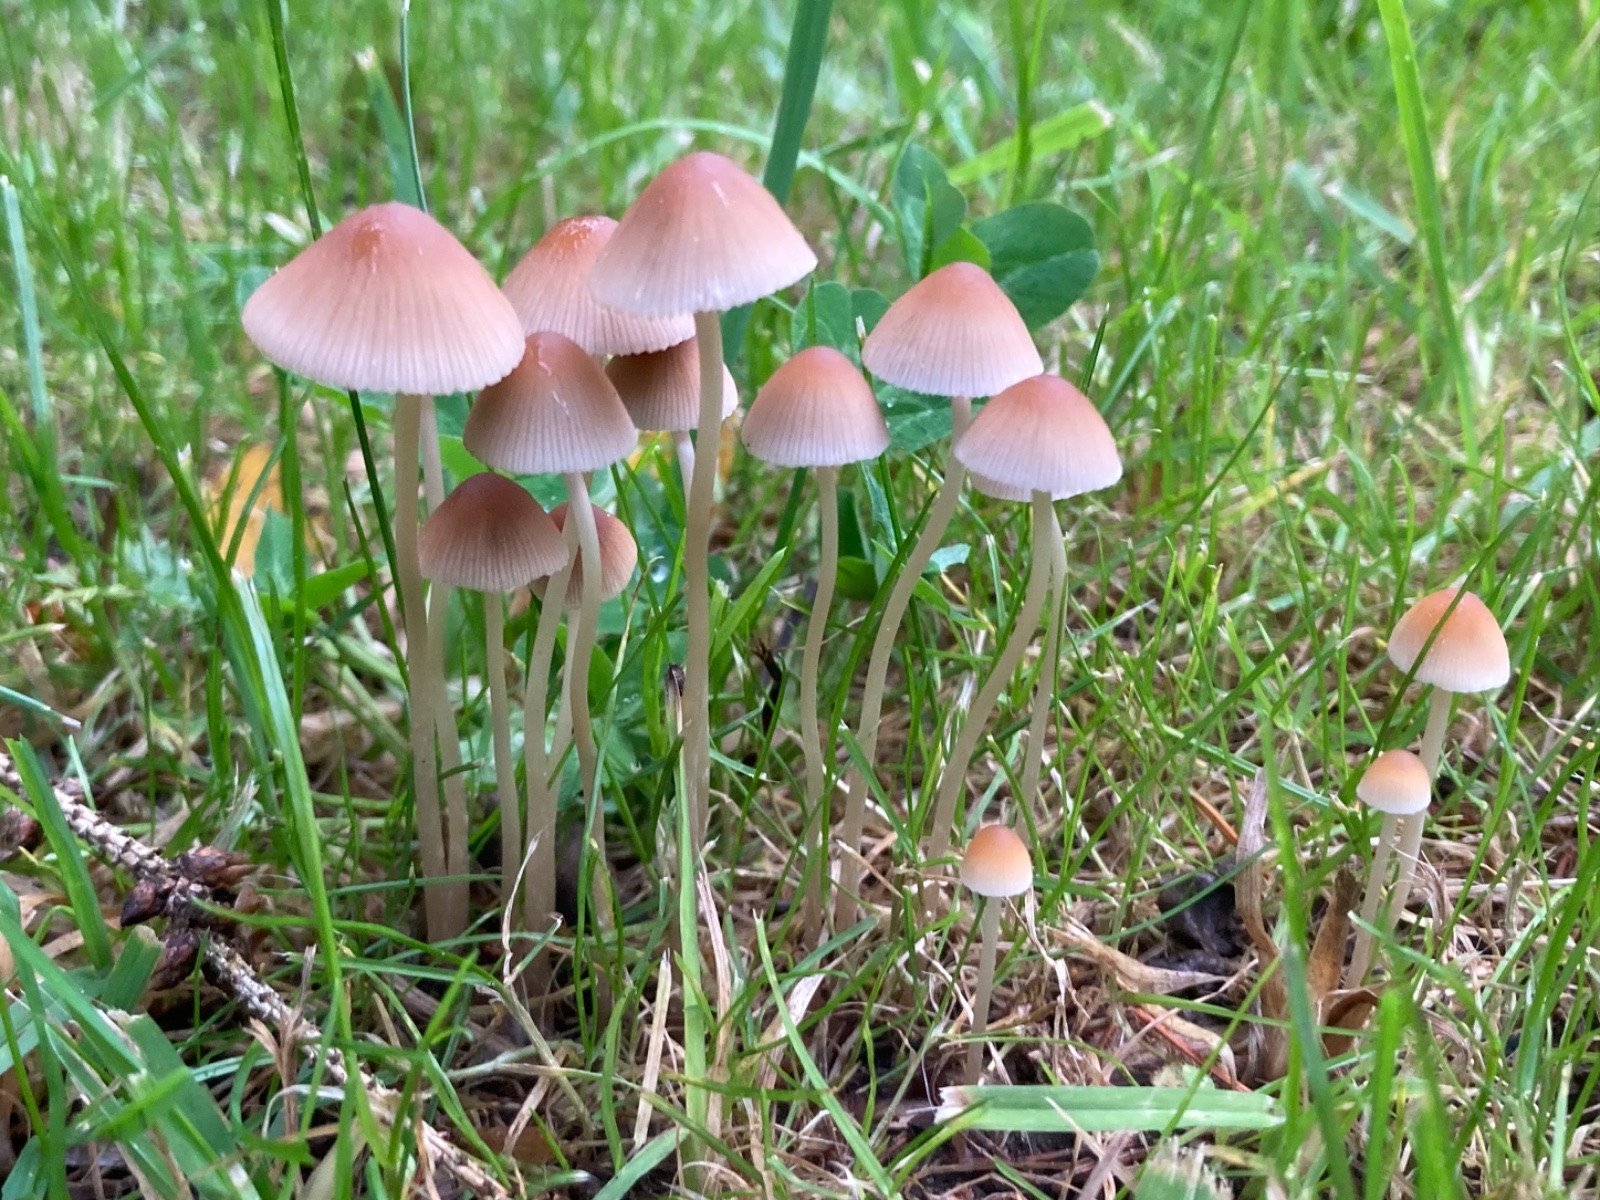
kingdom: Fungi
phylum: Basidiomycota
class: Agaricomycetes
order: Agaricales
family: Psathyrellaceae
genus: Psathyrella
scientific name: Psathyrella
